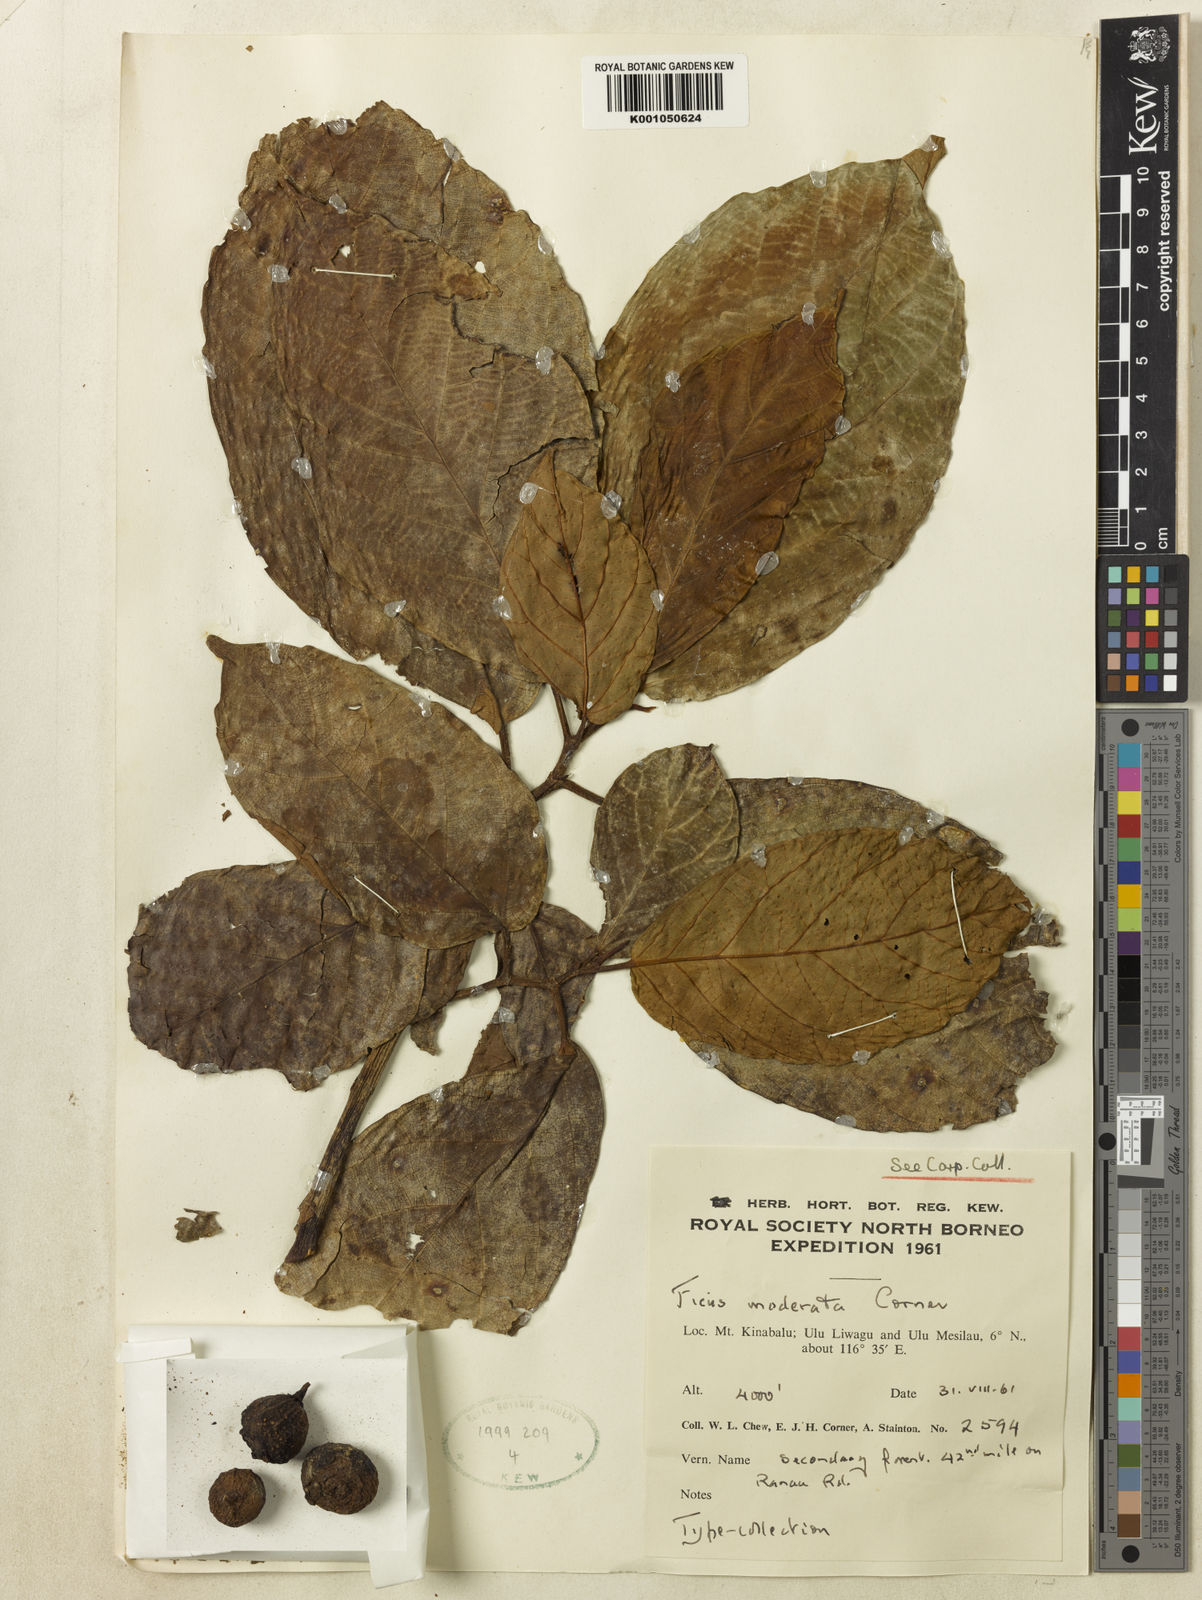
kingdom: Plantae
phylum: Tracheophyta
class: Magnoliopsida
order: Rosales
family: Moraceae
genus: Ficus
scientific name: Ficus satterthwaitei
